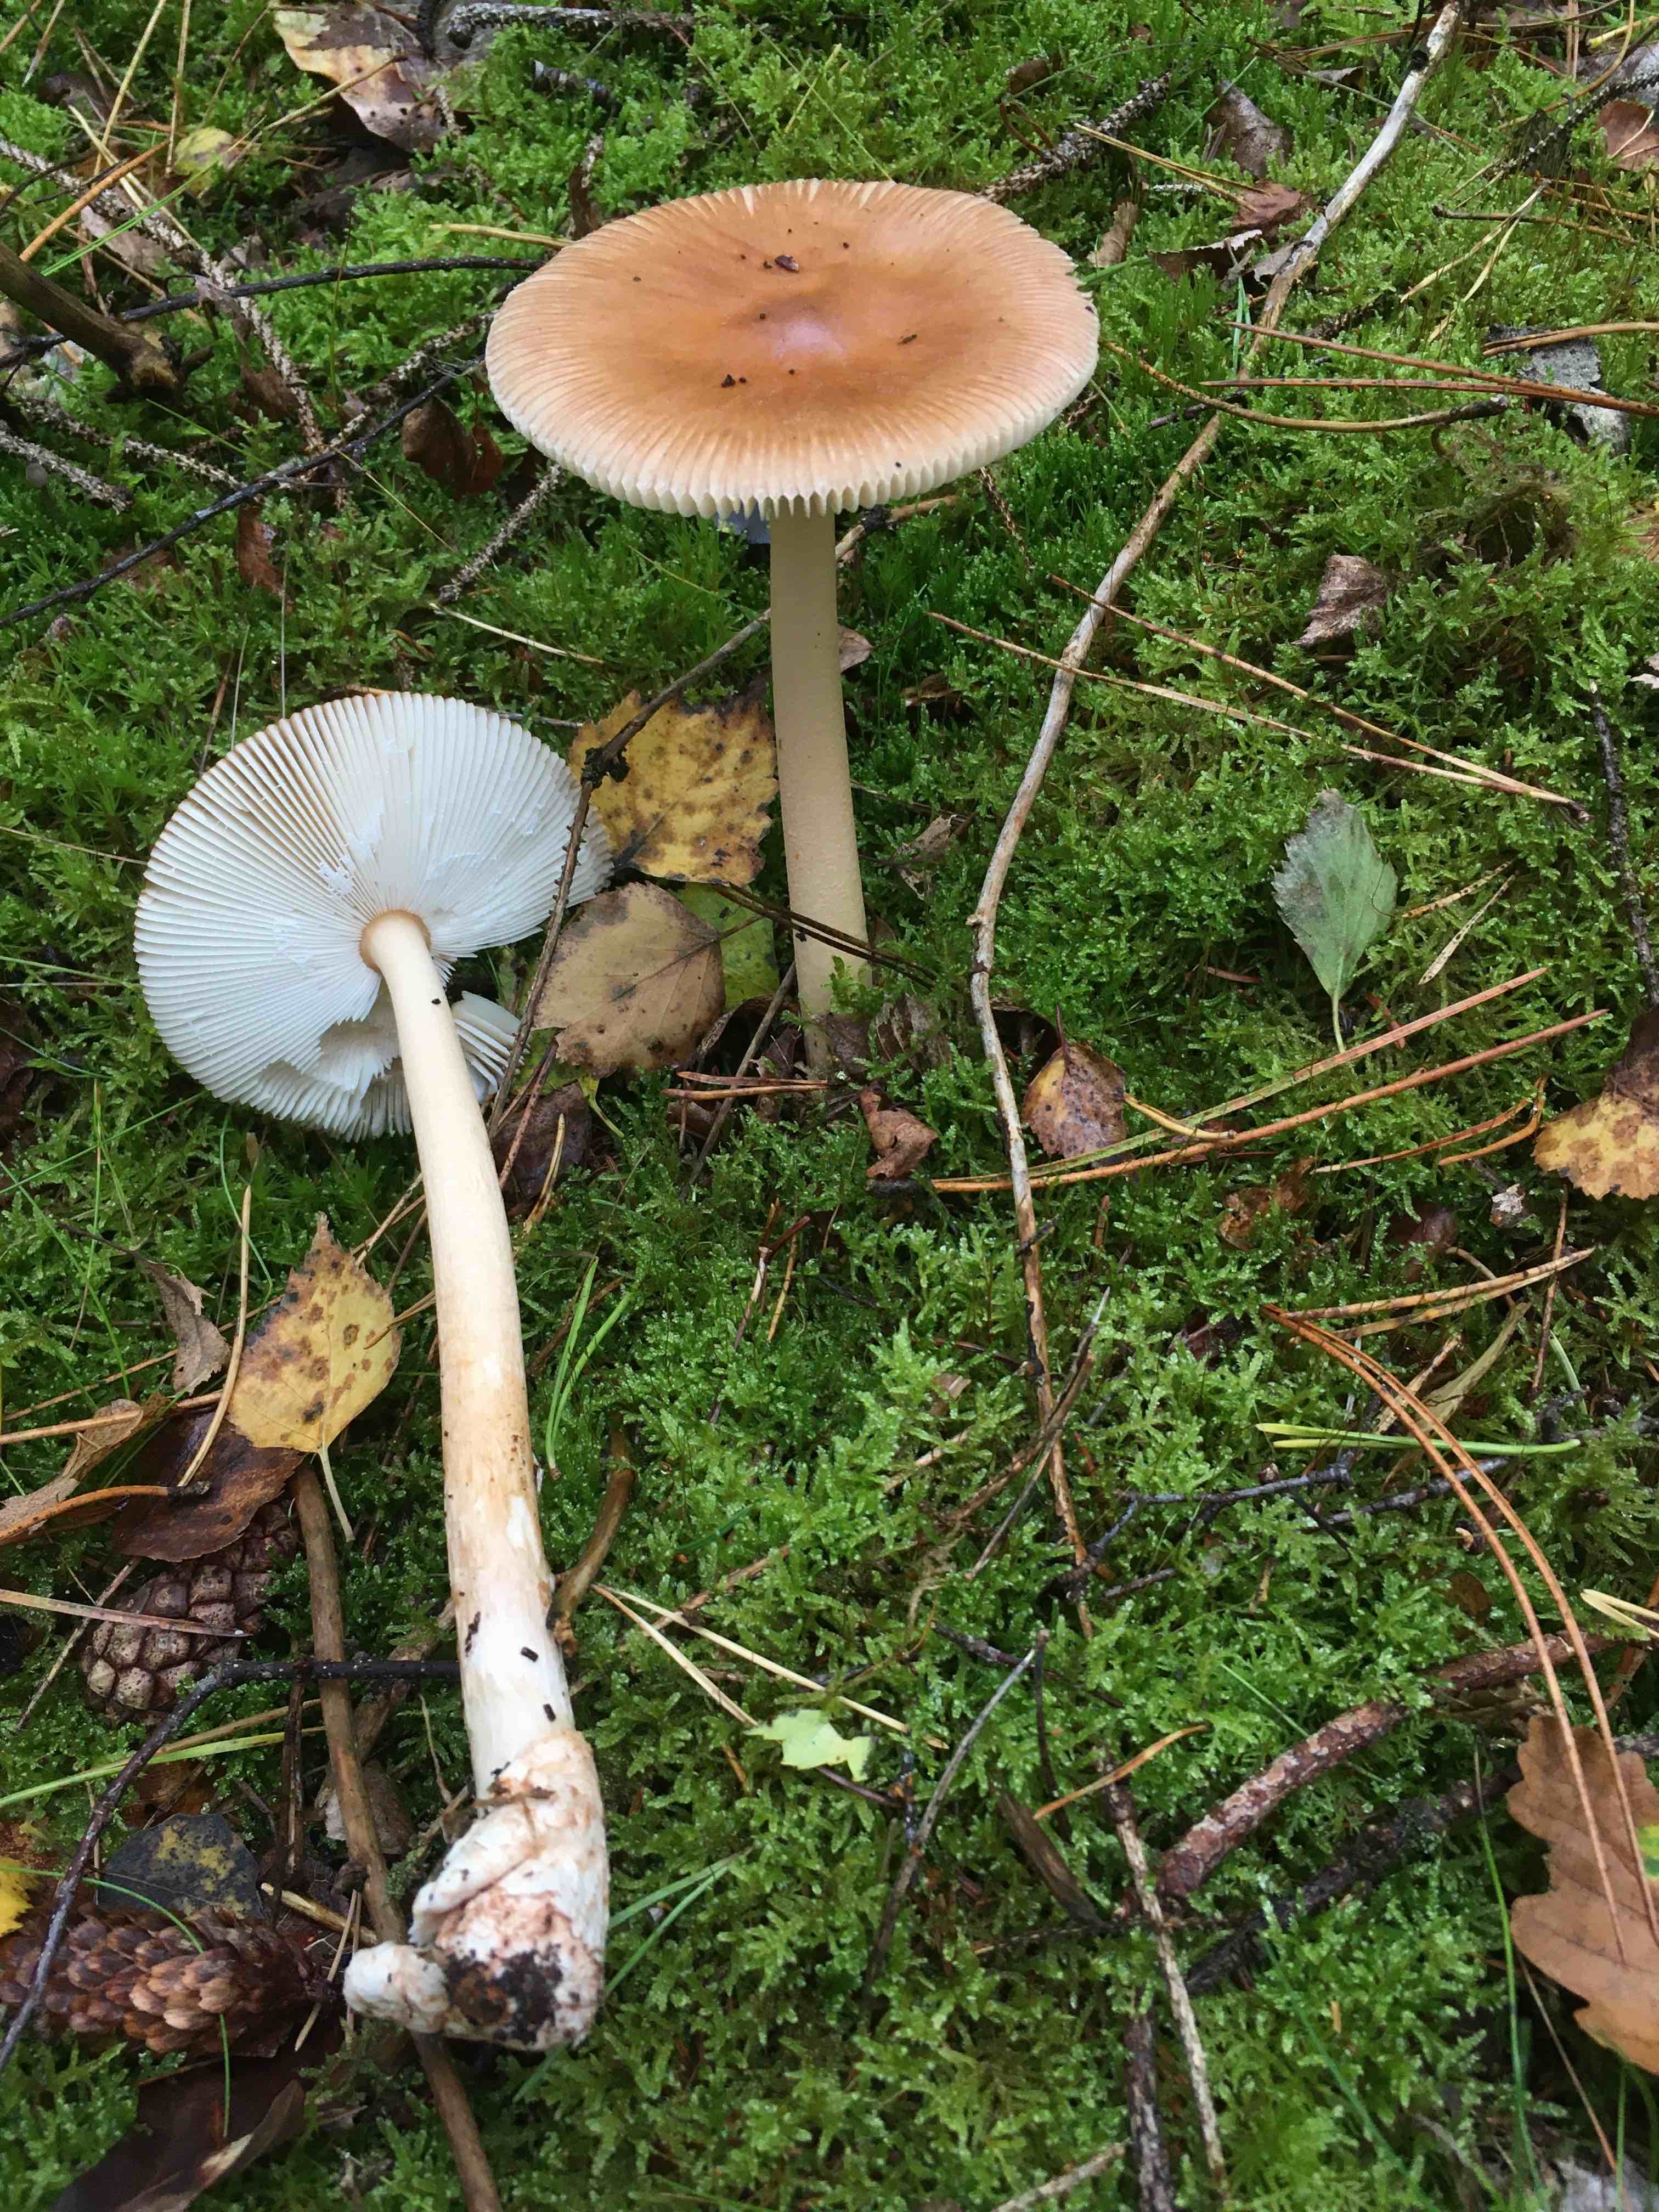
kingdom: Fungi
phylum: Basidiomycota
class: Agaricomycetes
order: Agaricales
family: Amanitaceae
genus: Amanita
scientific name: Amanita fulva
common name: brun kam-fluesvamp
